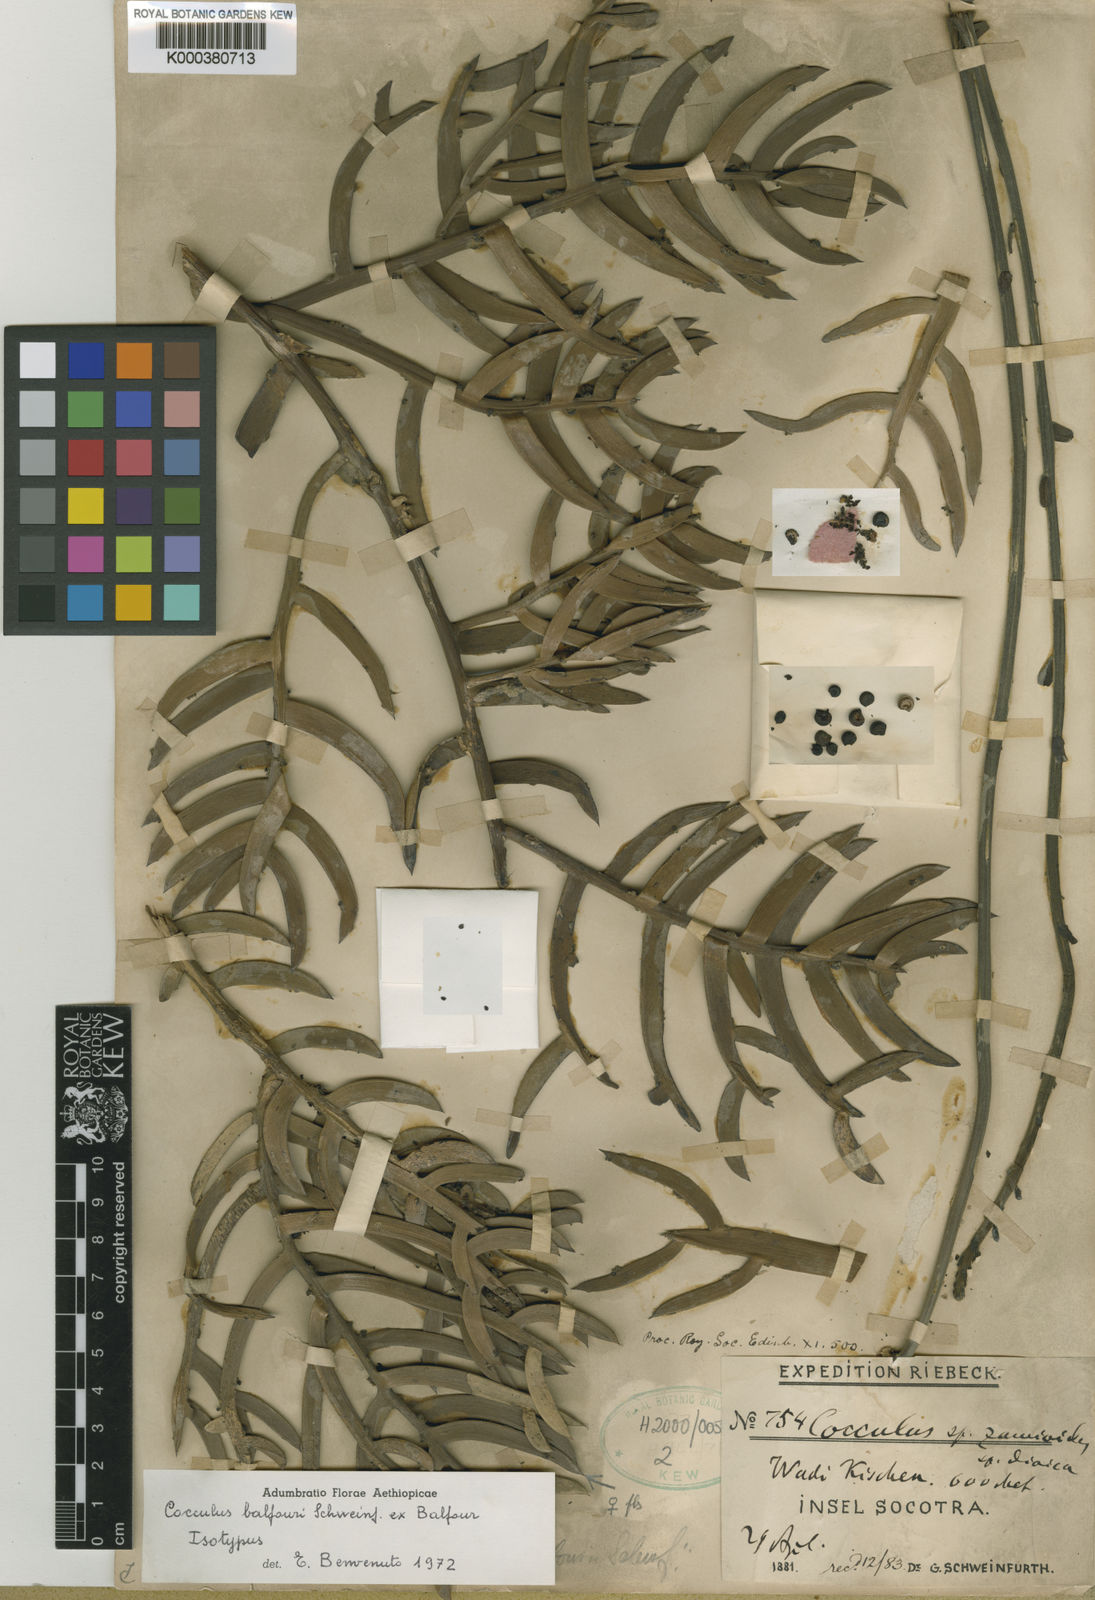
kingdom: Plantae
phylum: Tracheophyta
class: Magnoliopsida
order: Ranunculales
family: Menispermaceae
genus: Cocculus
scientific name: Cocculus
